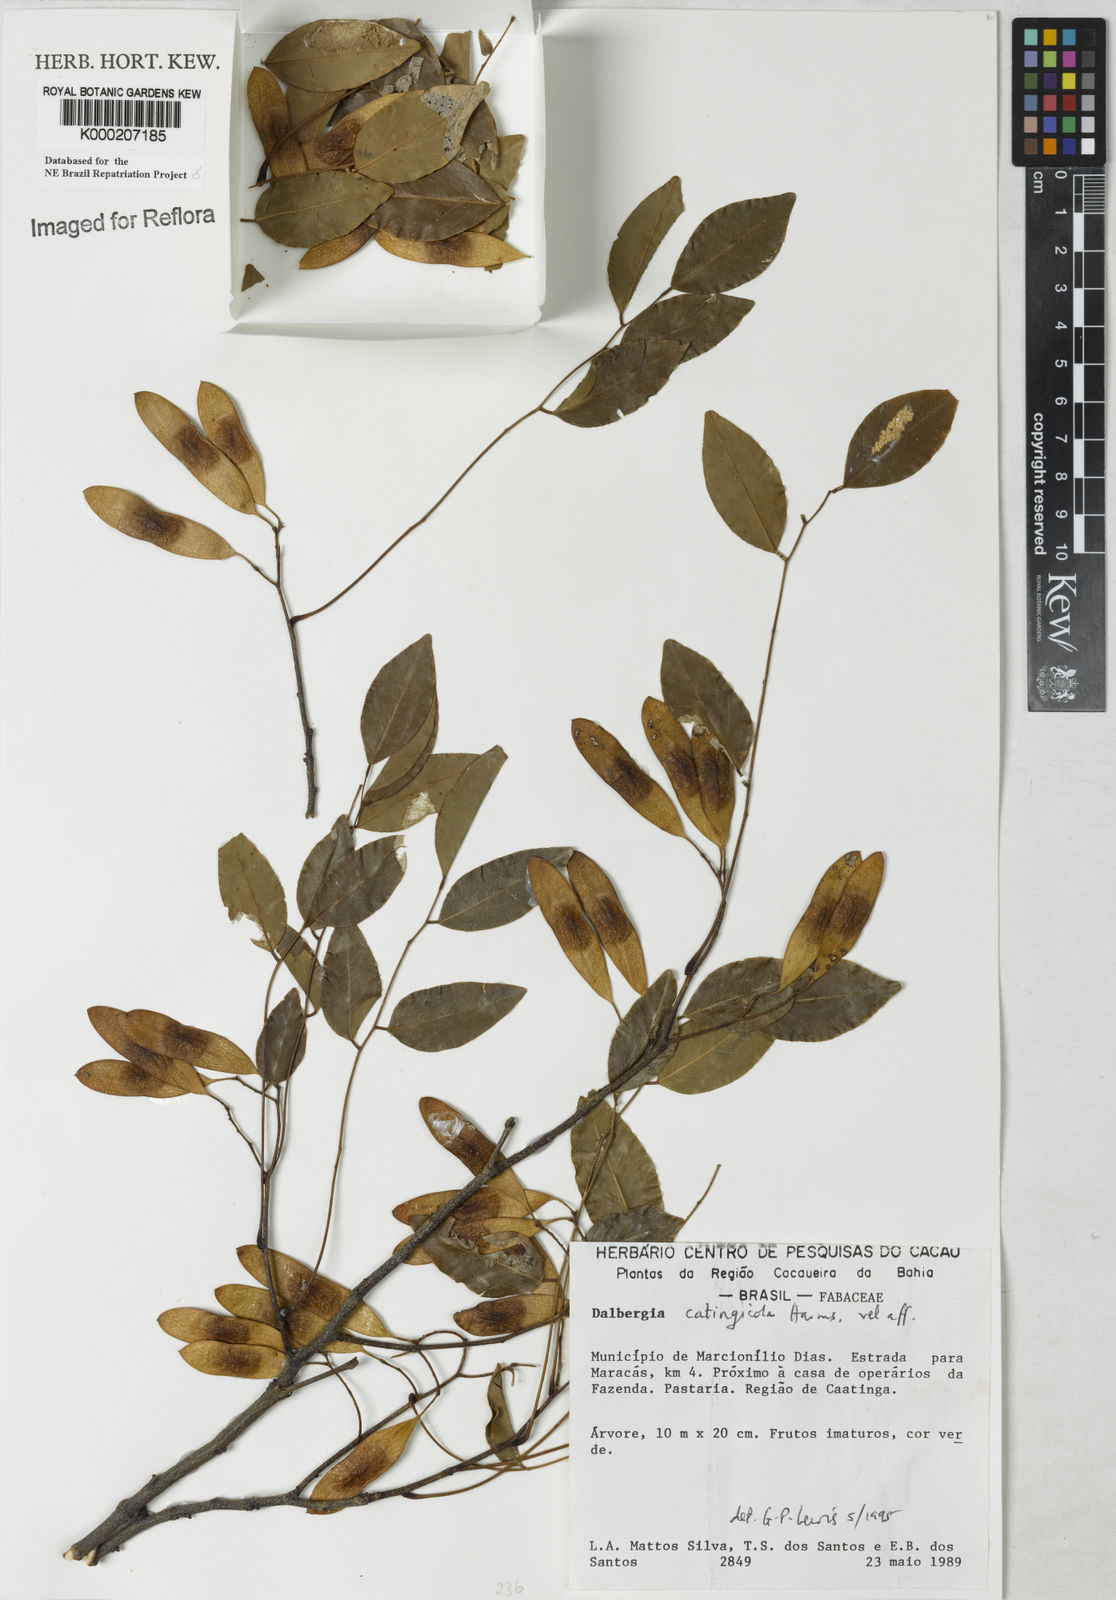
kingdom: Plantae
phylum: Tracheophyta
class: Magnoliopsida
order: Fabales
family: Fabaceae
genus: Dalbergia
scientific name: Dalbergia catingicola
